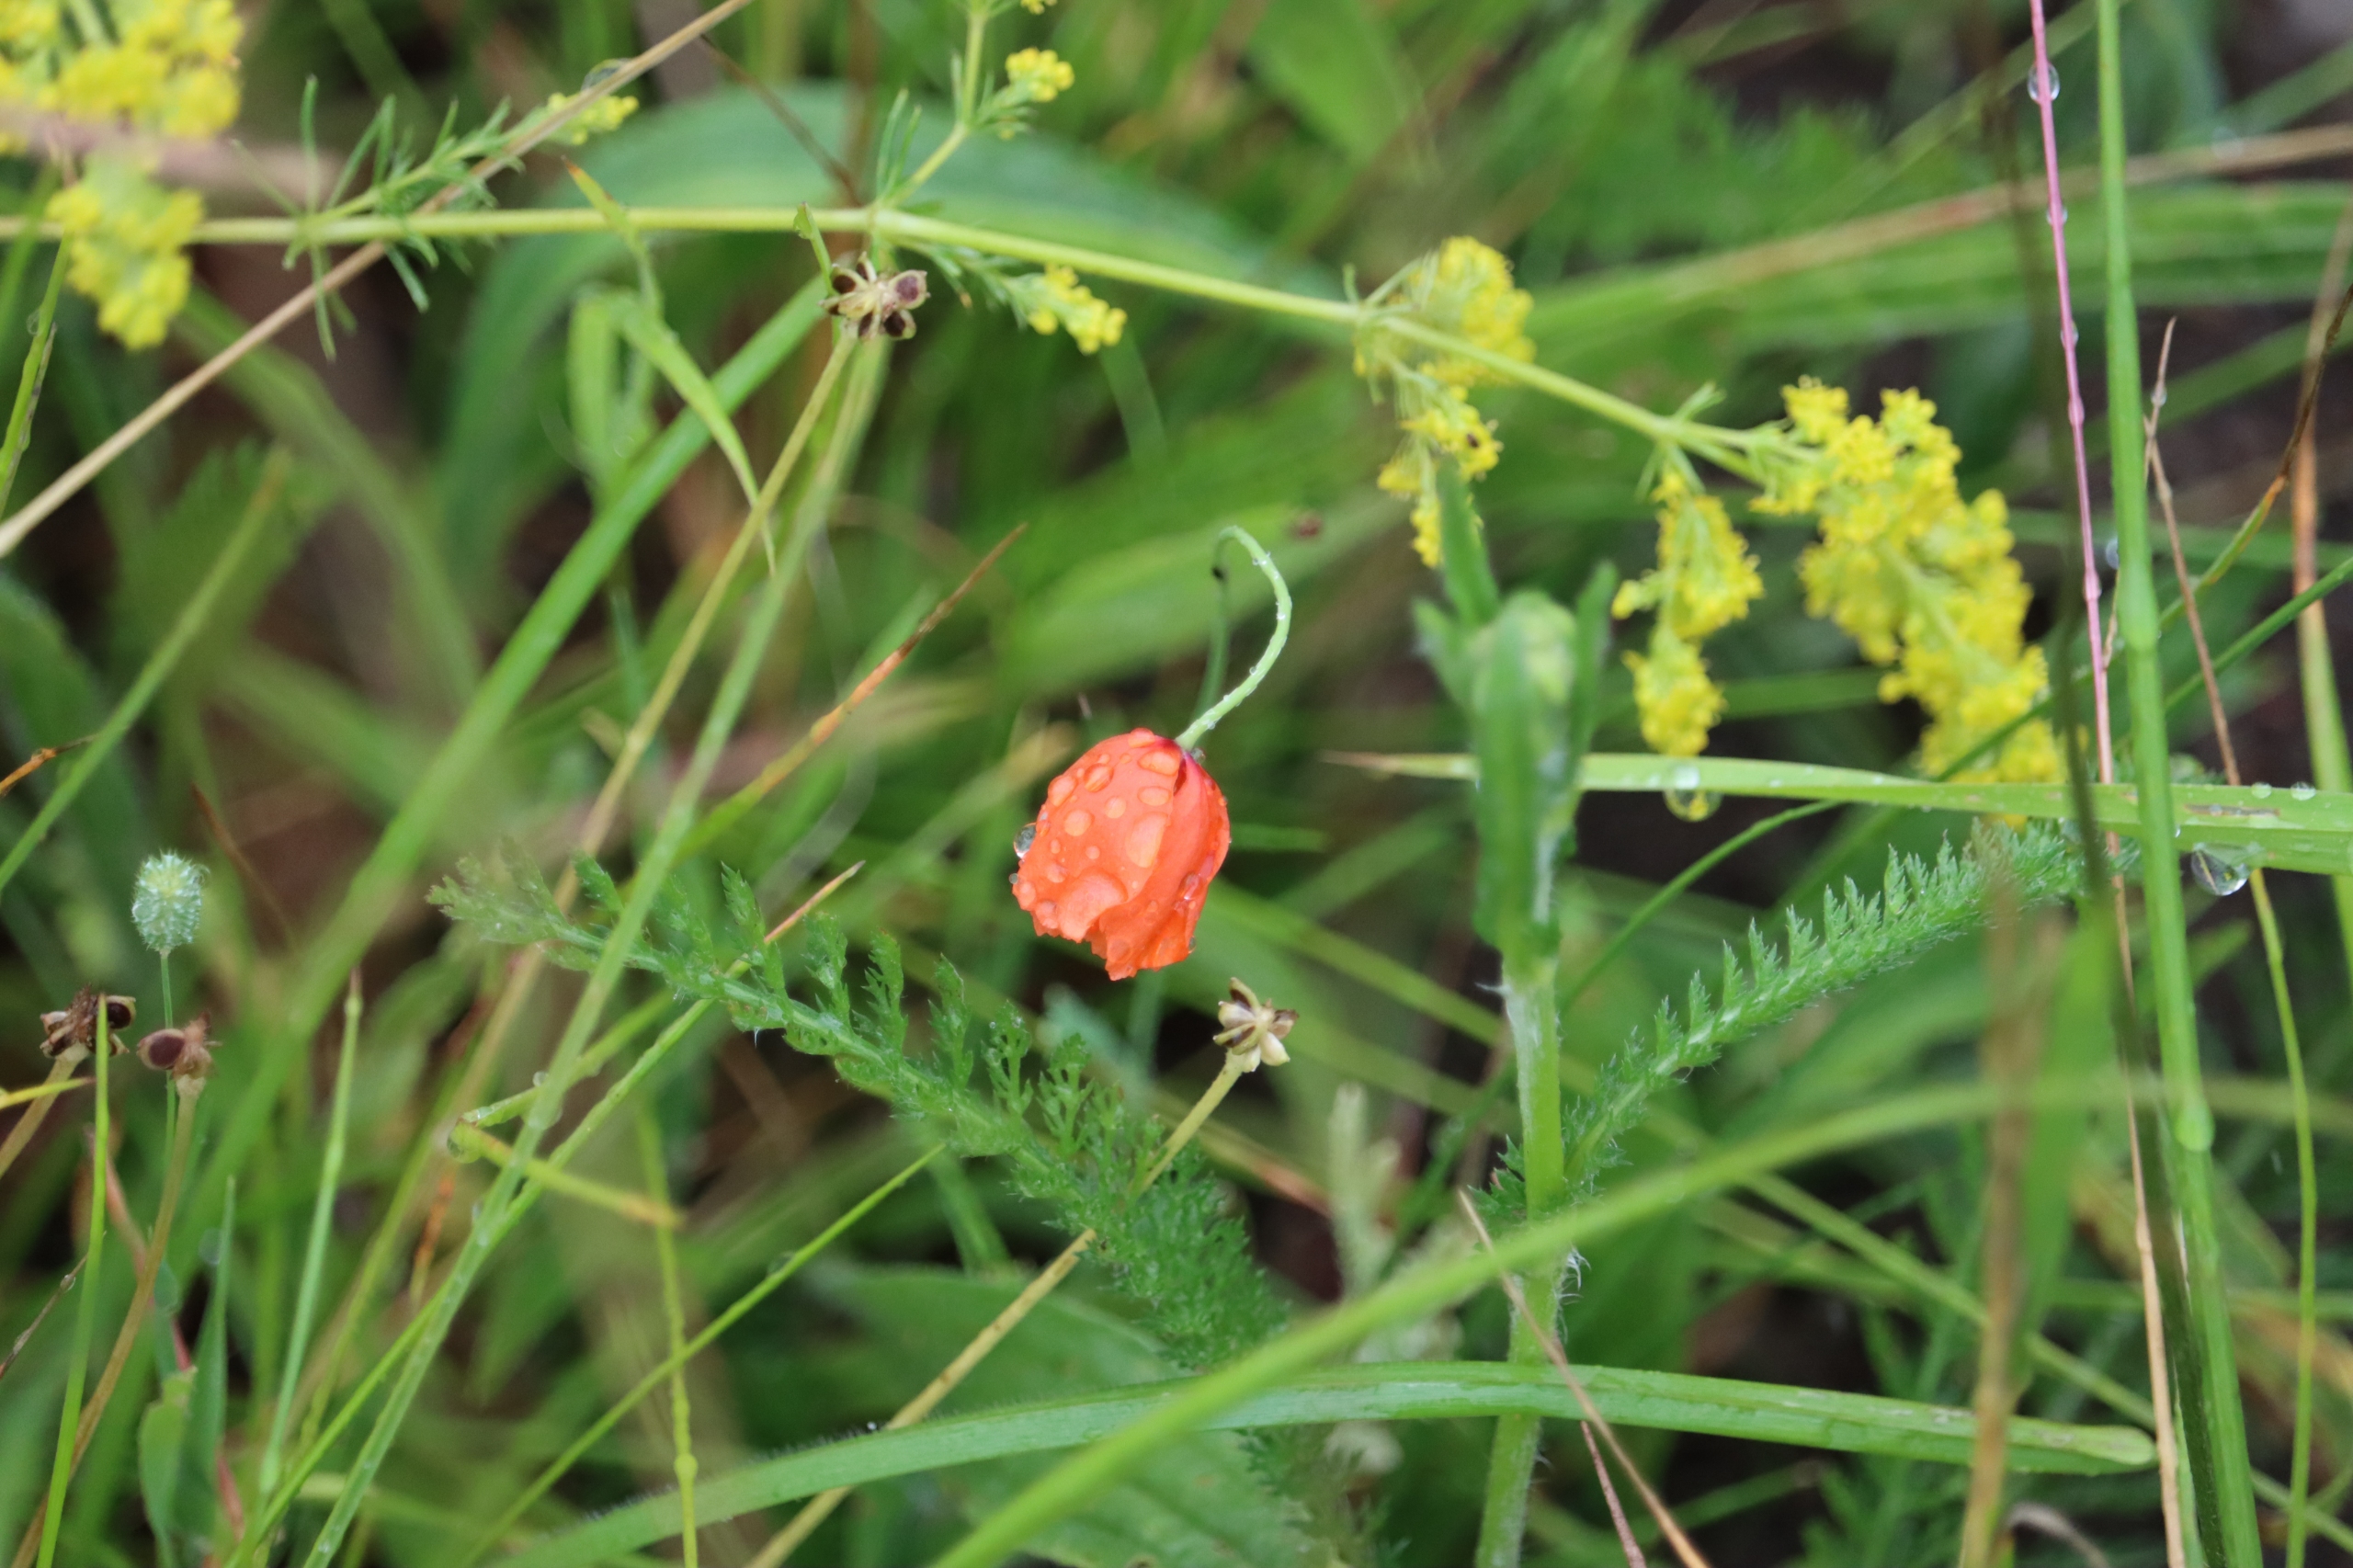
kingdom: Plantae
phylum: Tracheophyta
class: Magnoliopsida
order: Ranunculales
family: Papaveraceae
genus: Papaver
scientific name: Papaver dubium
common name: Gærde-valmue
